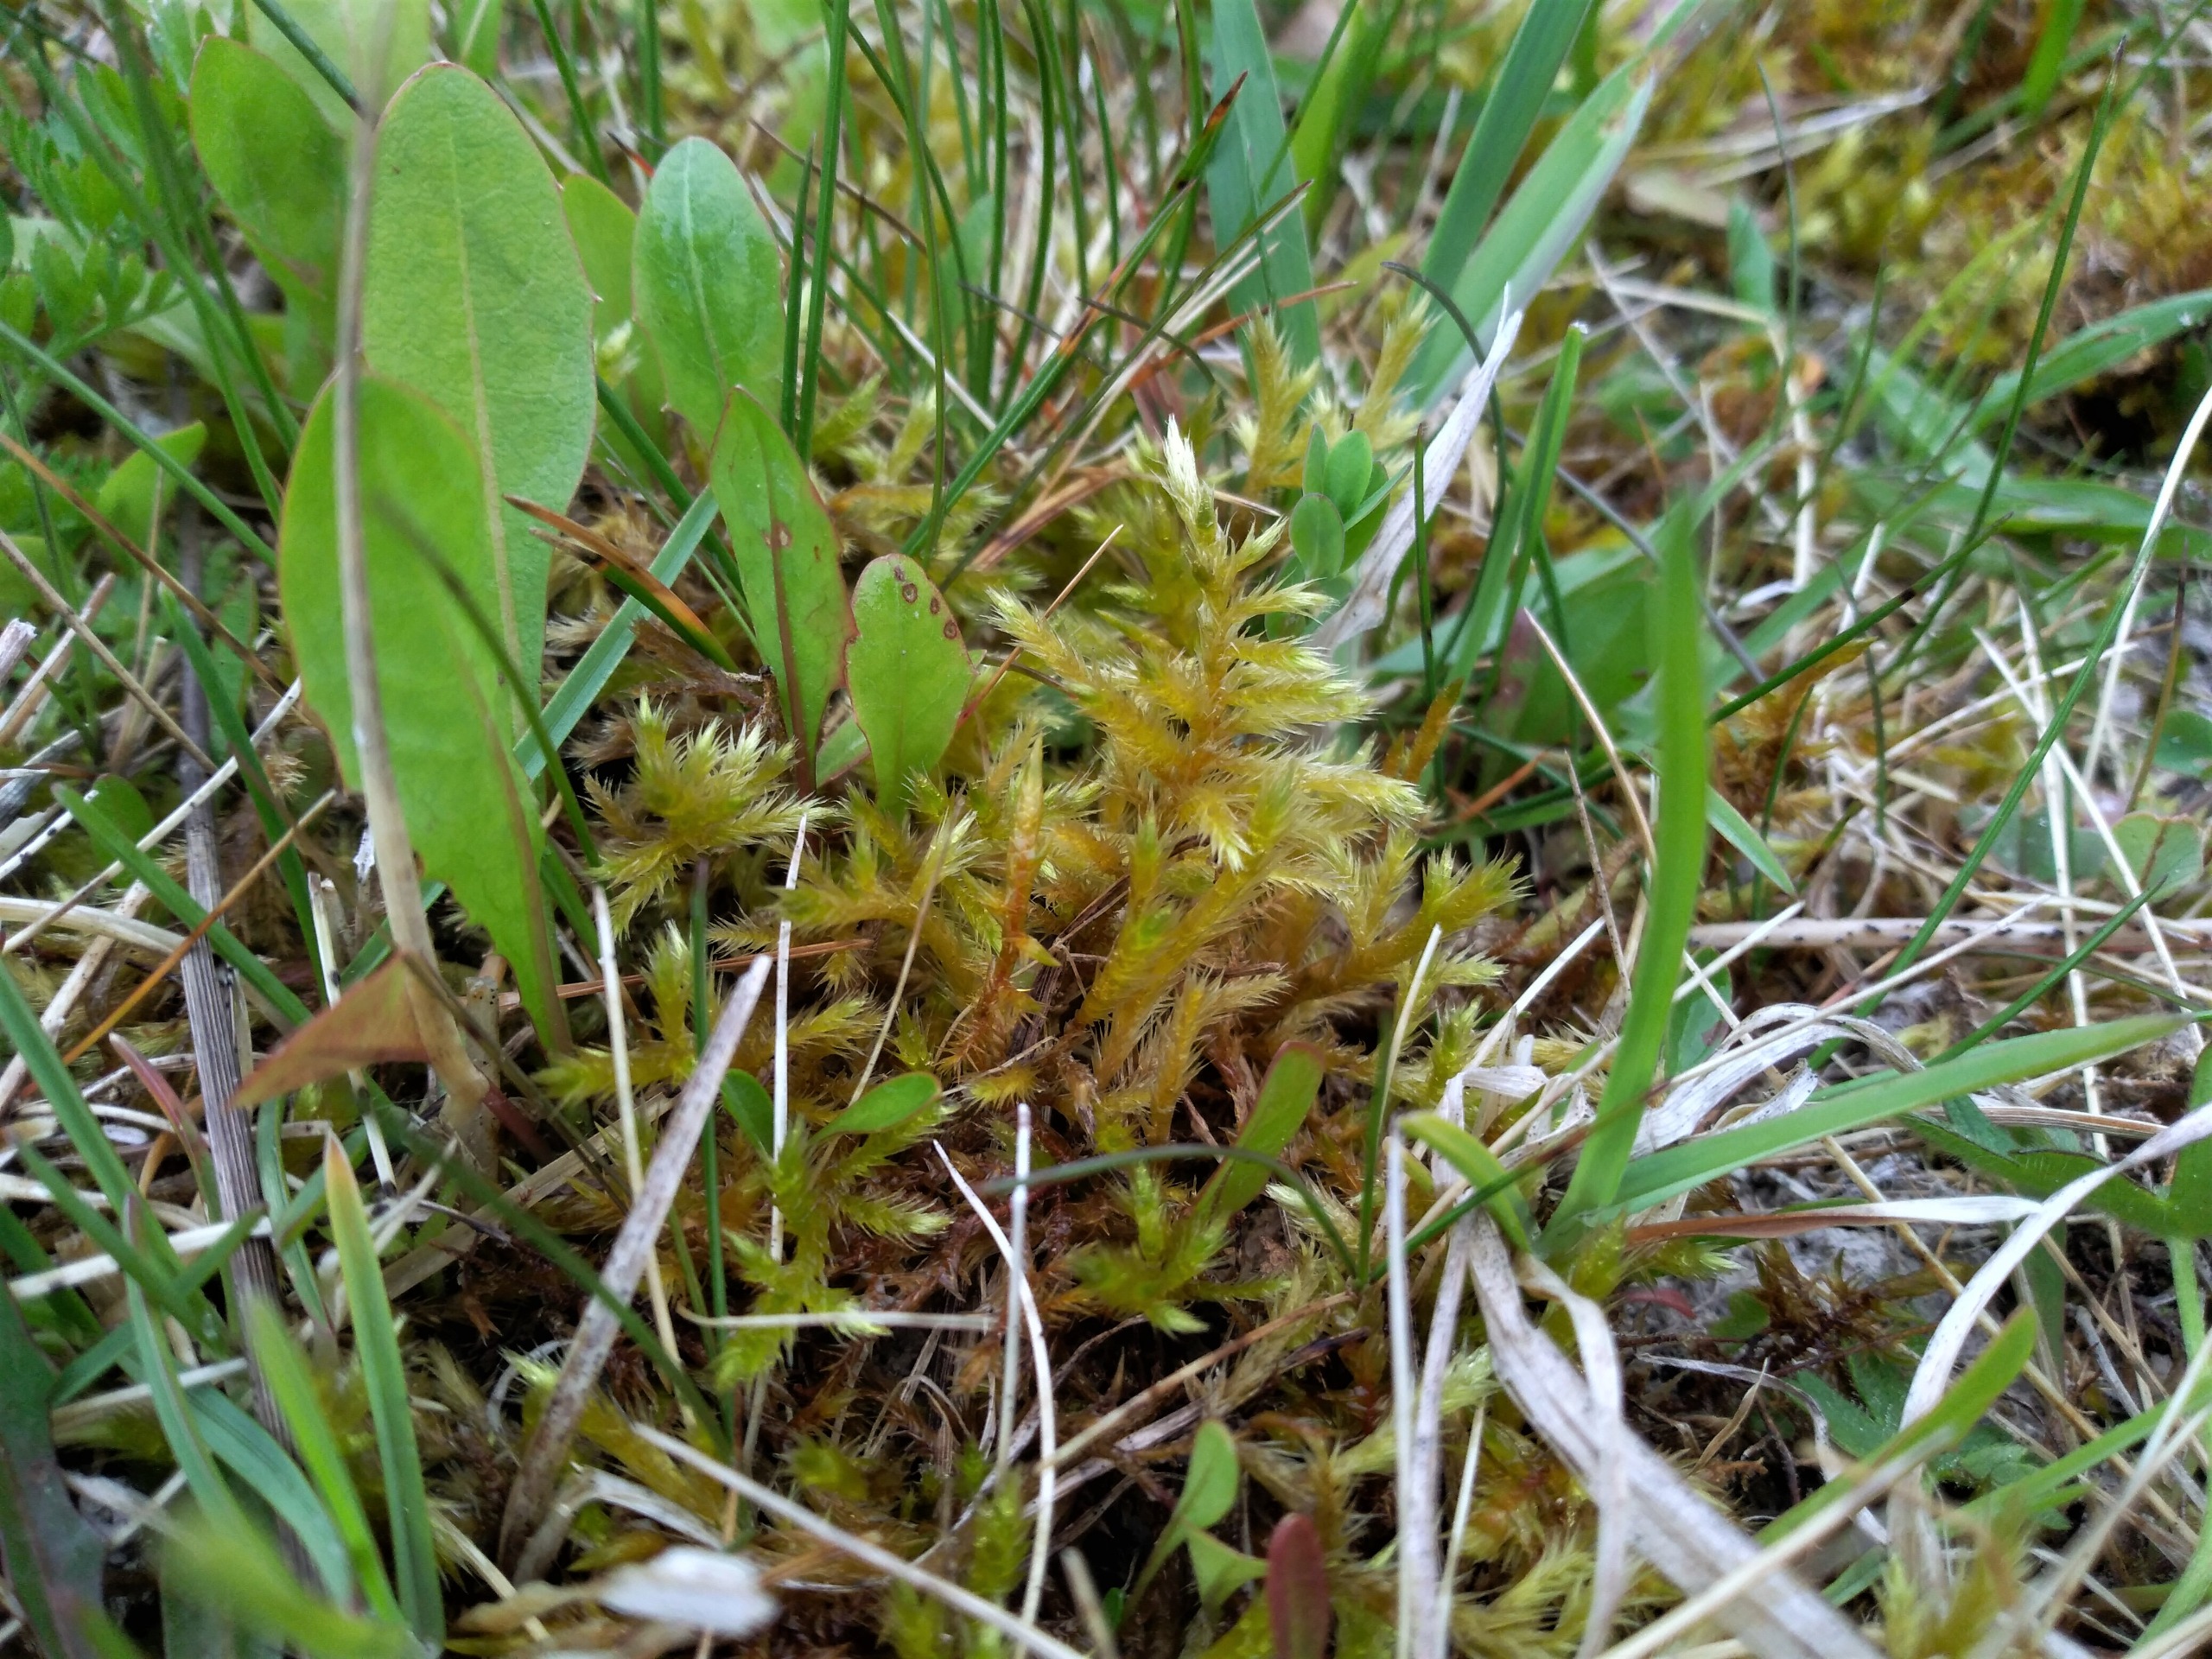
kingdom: Plantae
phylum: Bryophyta
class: Bryopsida
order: Hypnales
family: Brachytheciaceae
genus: Homalothecium
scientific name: Homalothecium lutescens
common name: Gul krumkapsel
